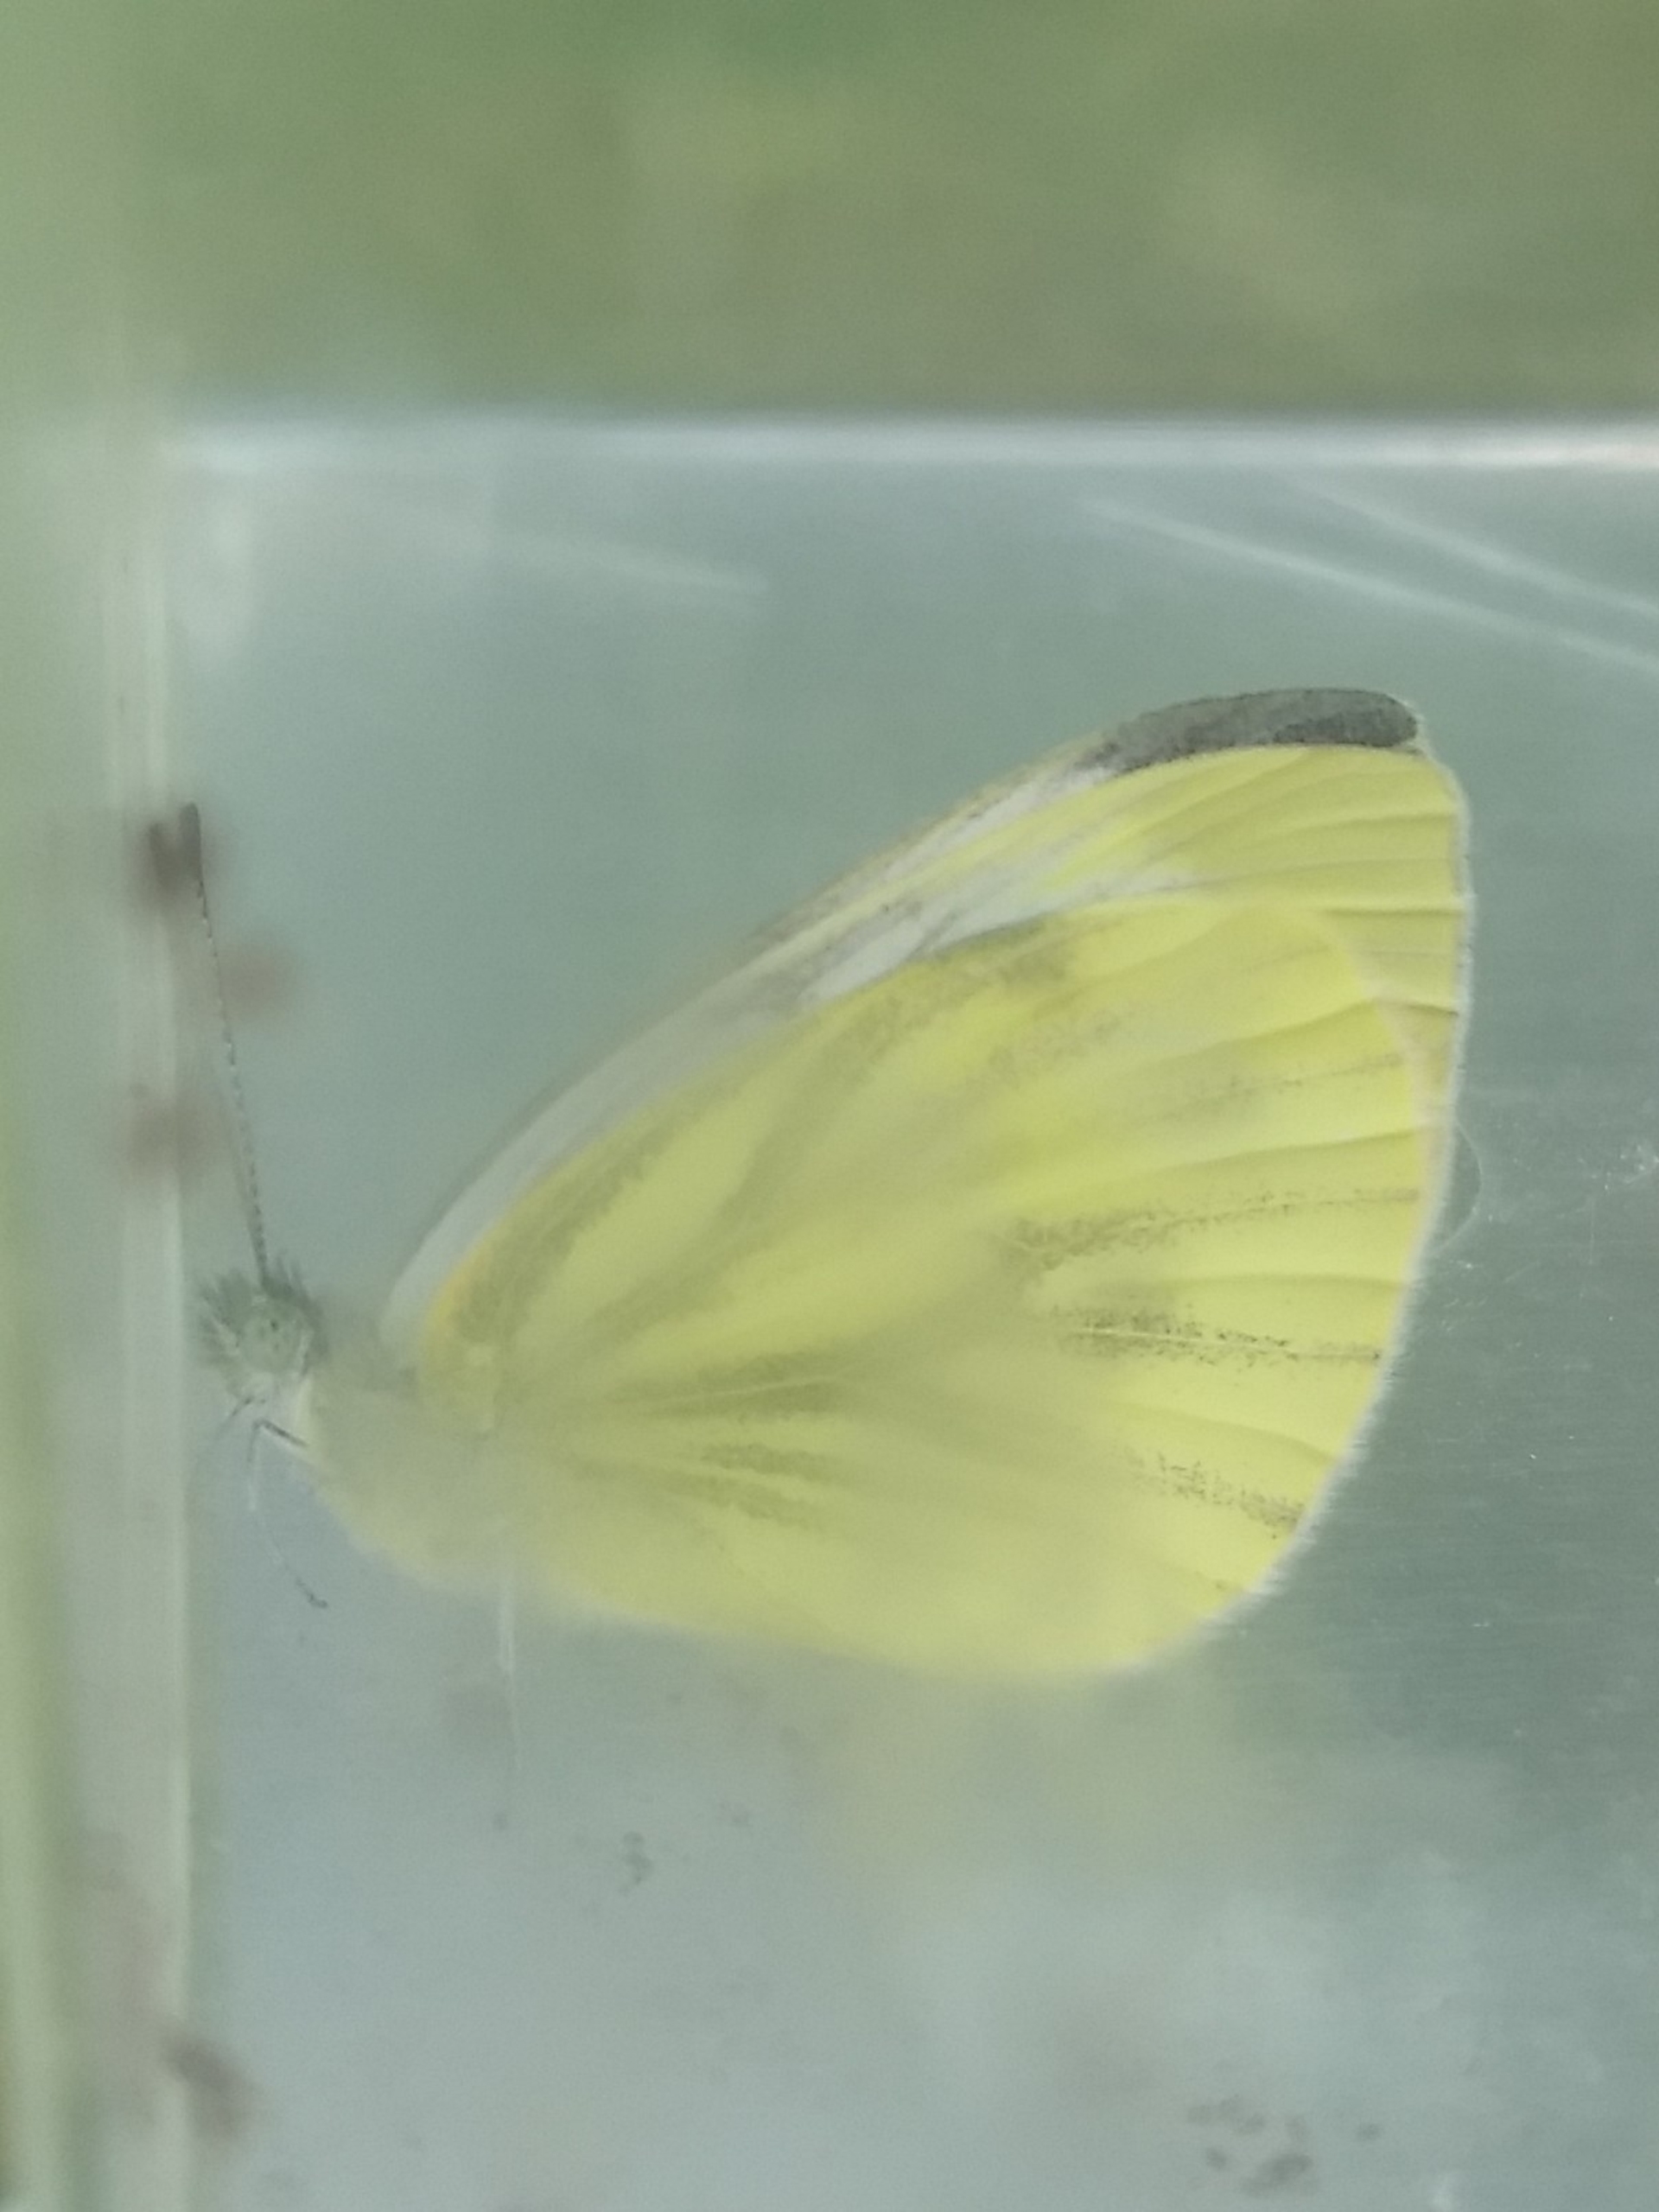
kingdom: Animalia
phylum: Arthropoda
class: Insecta
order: Lepidoptera
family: Pieridae
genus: Pieris
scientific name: Pieris napi
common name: Grønåret kålsommerfugl
